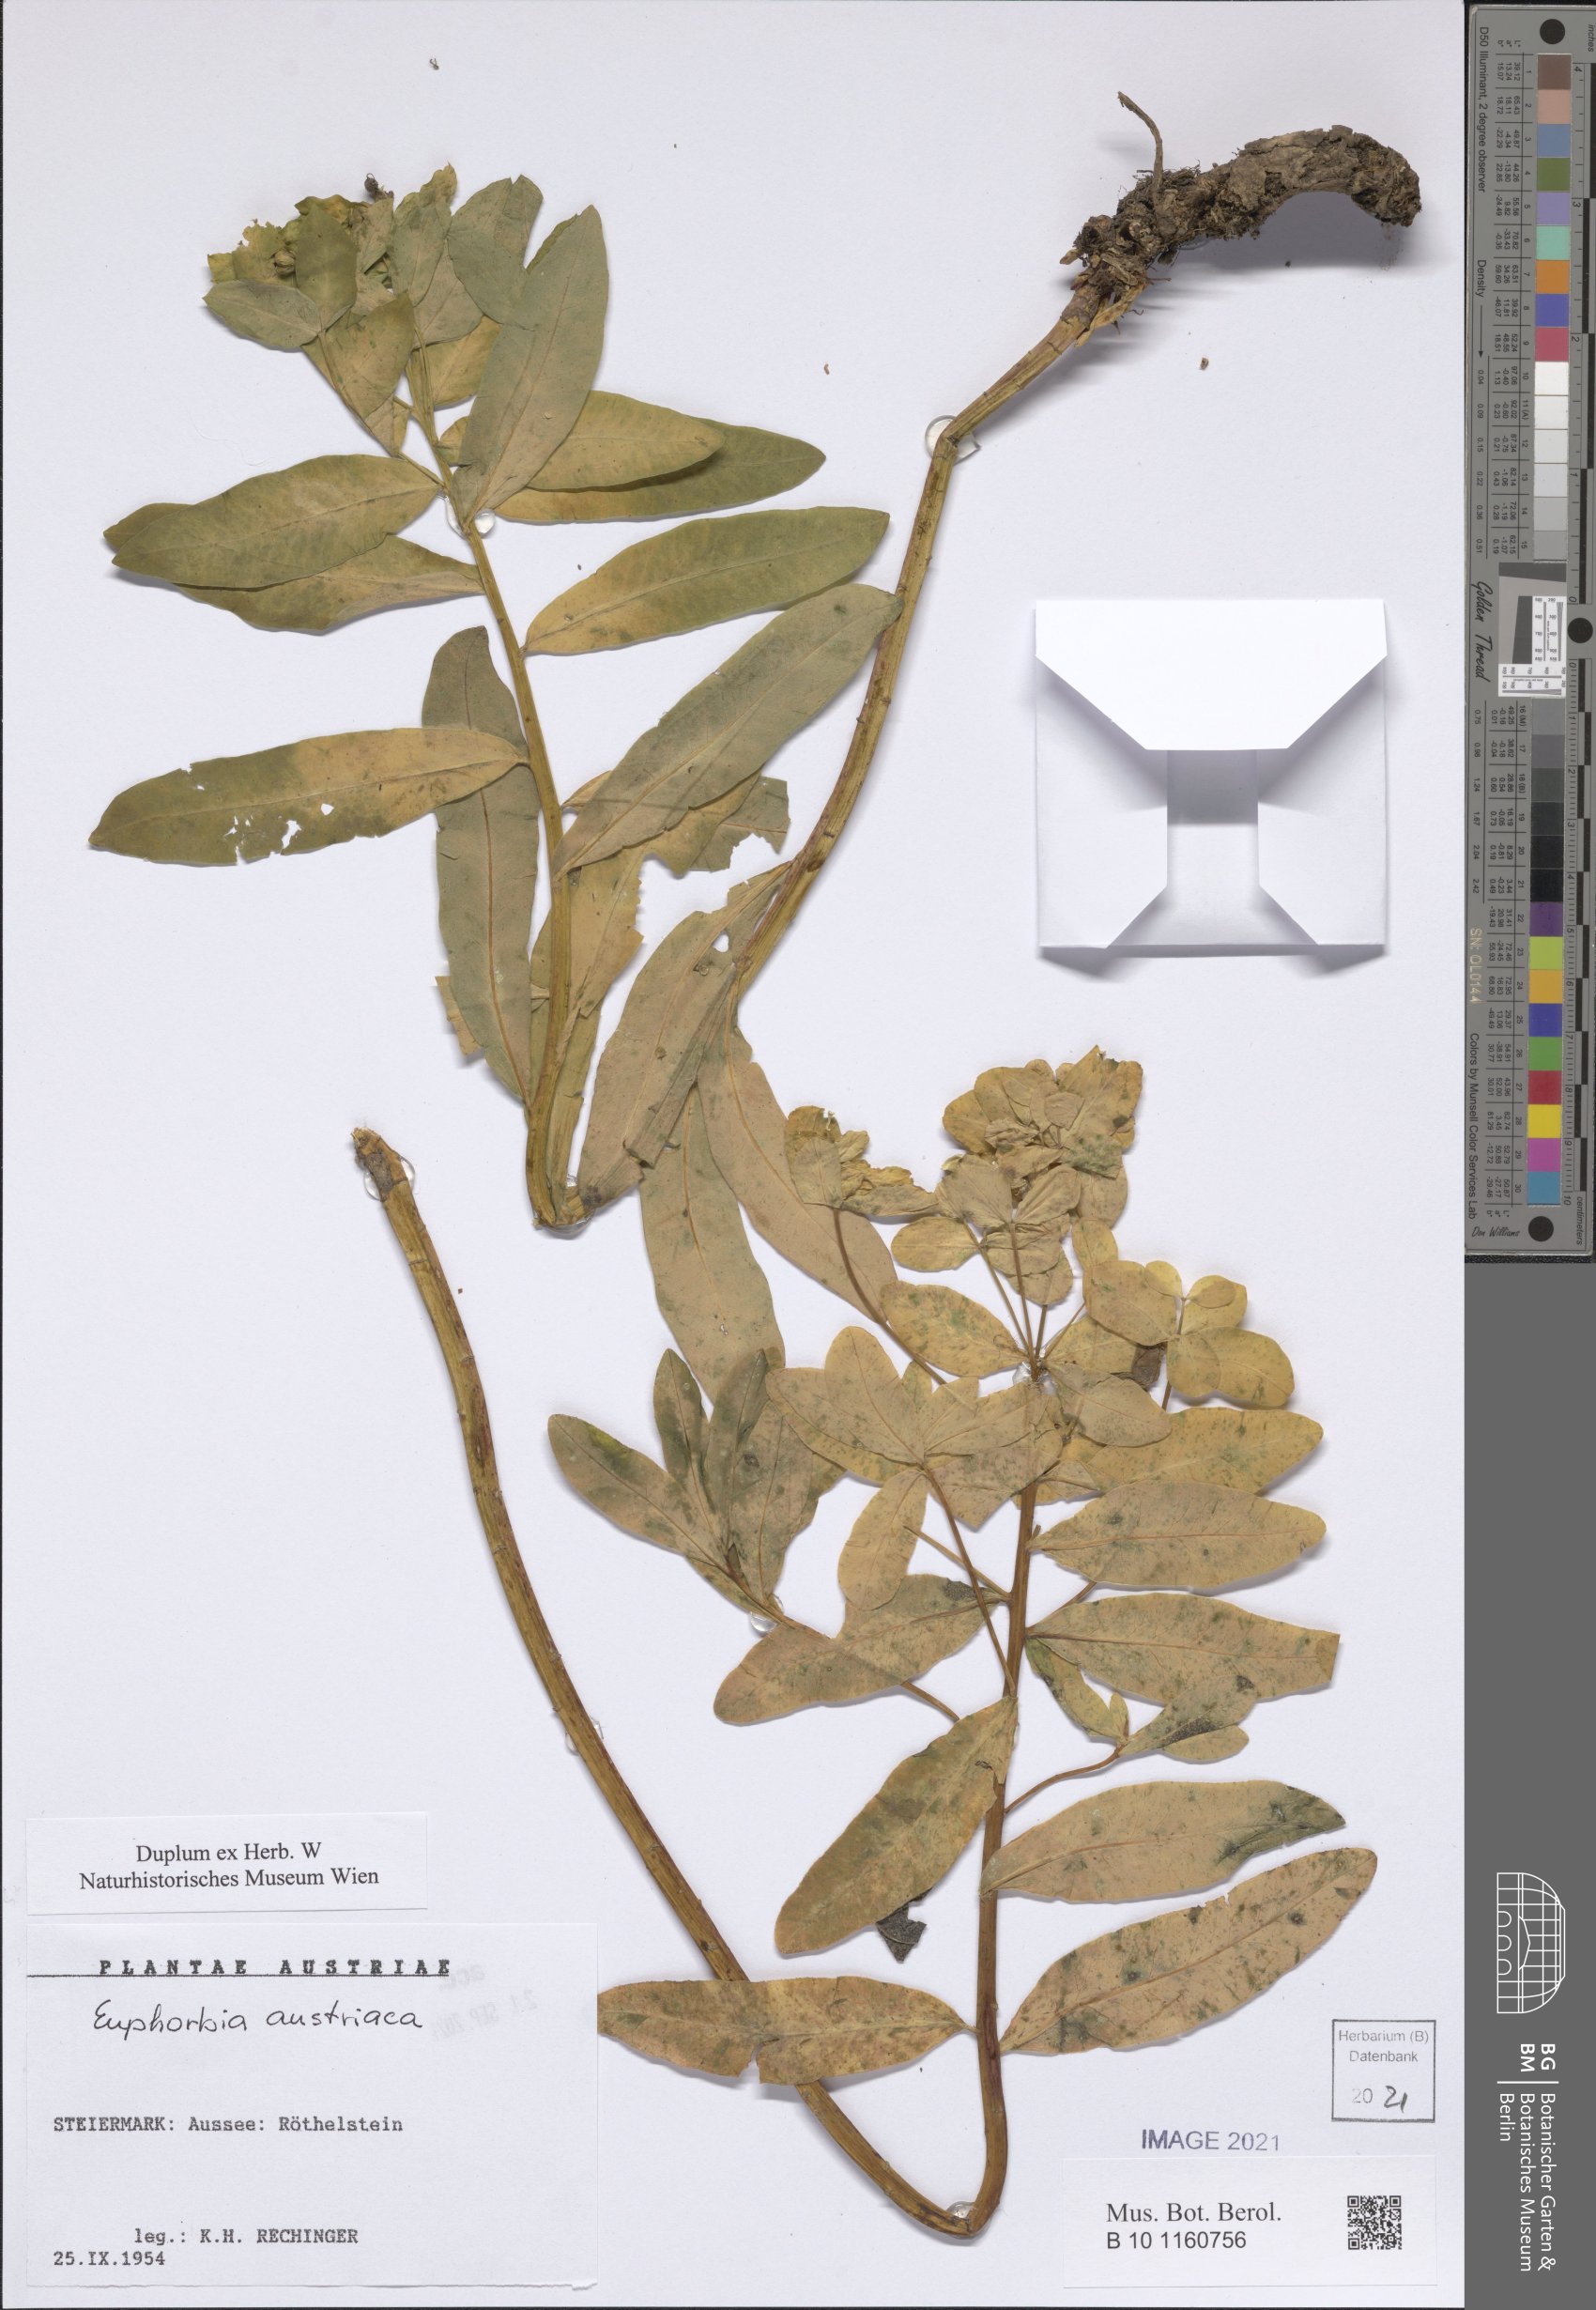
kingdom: Plantae
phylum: Tracheophyta
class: Magnoliopsida
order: Malpighiales
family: Euphorbiaceae
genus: Euphorbia
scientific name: Euphorbia austriaca
